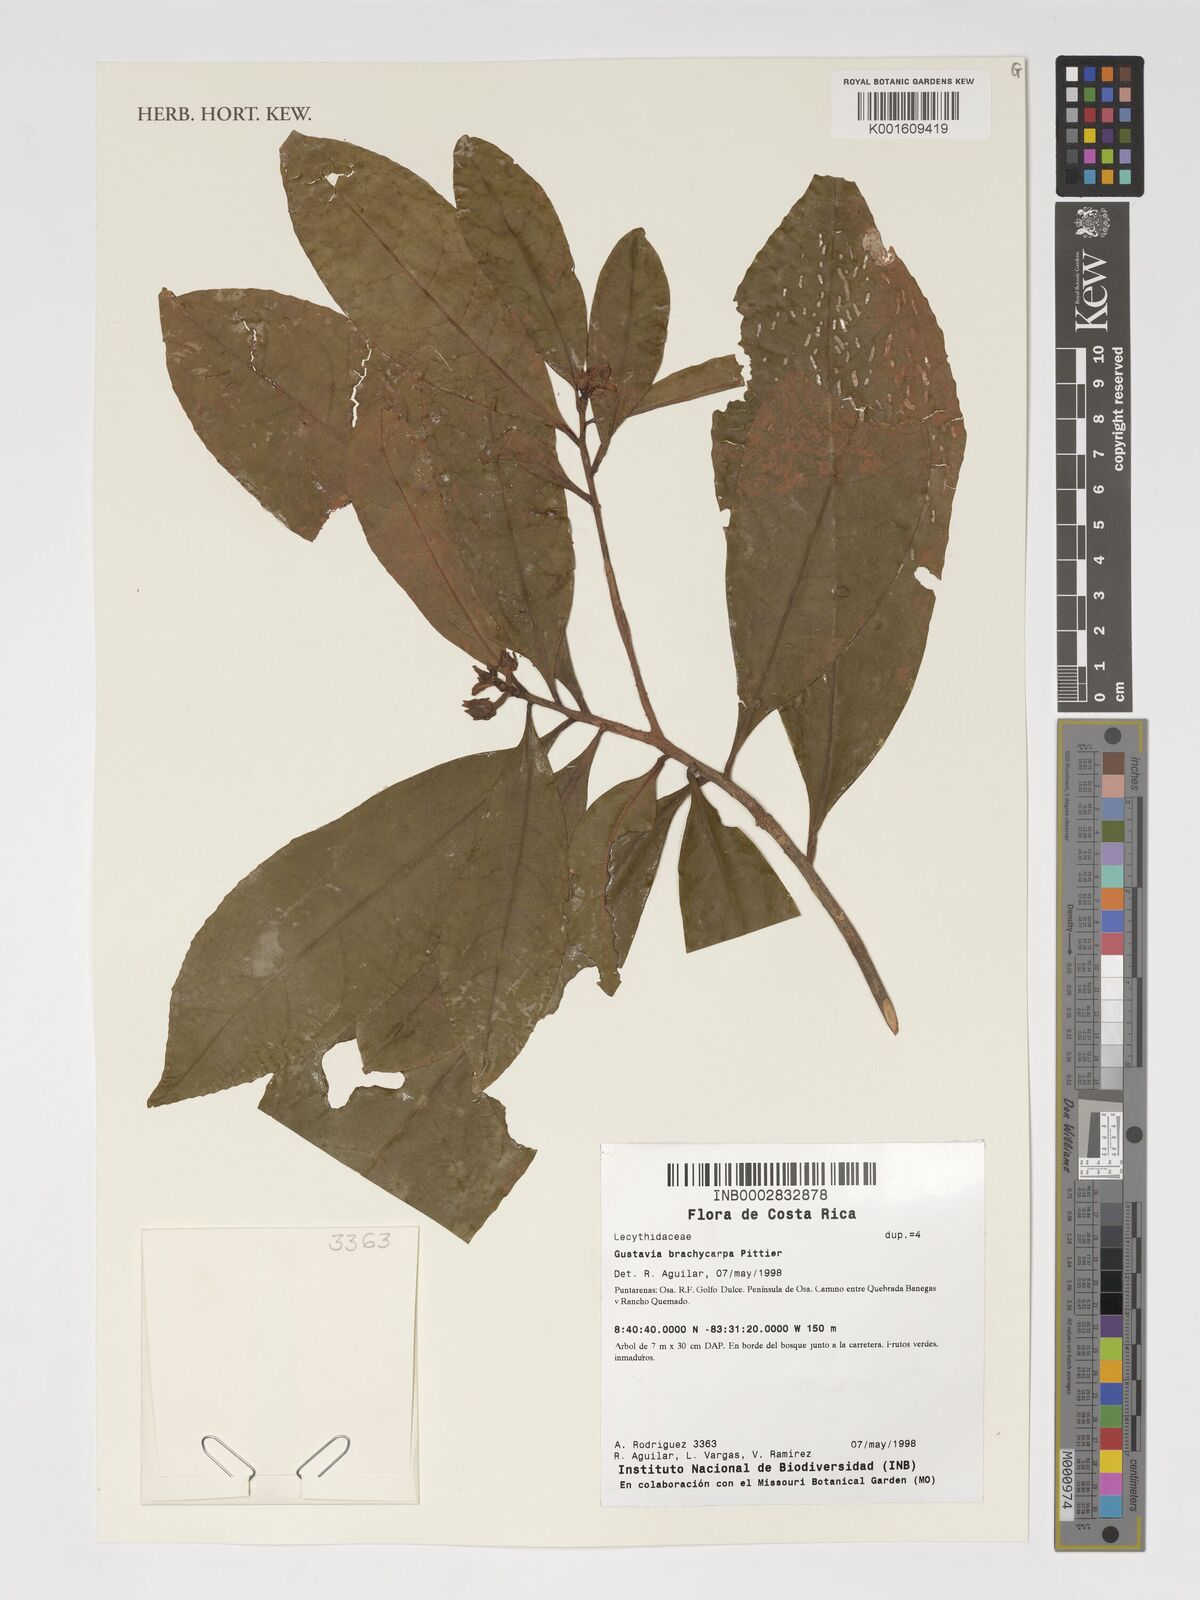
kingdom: Plantae
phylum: Tracheophyta
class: Magnoliopsida
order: Ericales
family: Lecythidaceae
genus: Gustavia
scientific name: Gustavia brachycarpa
